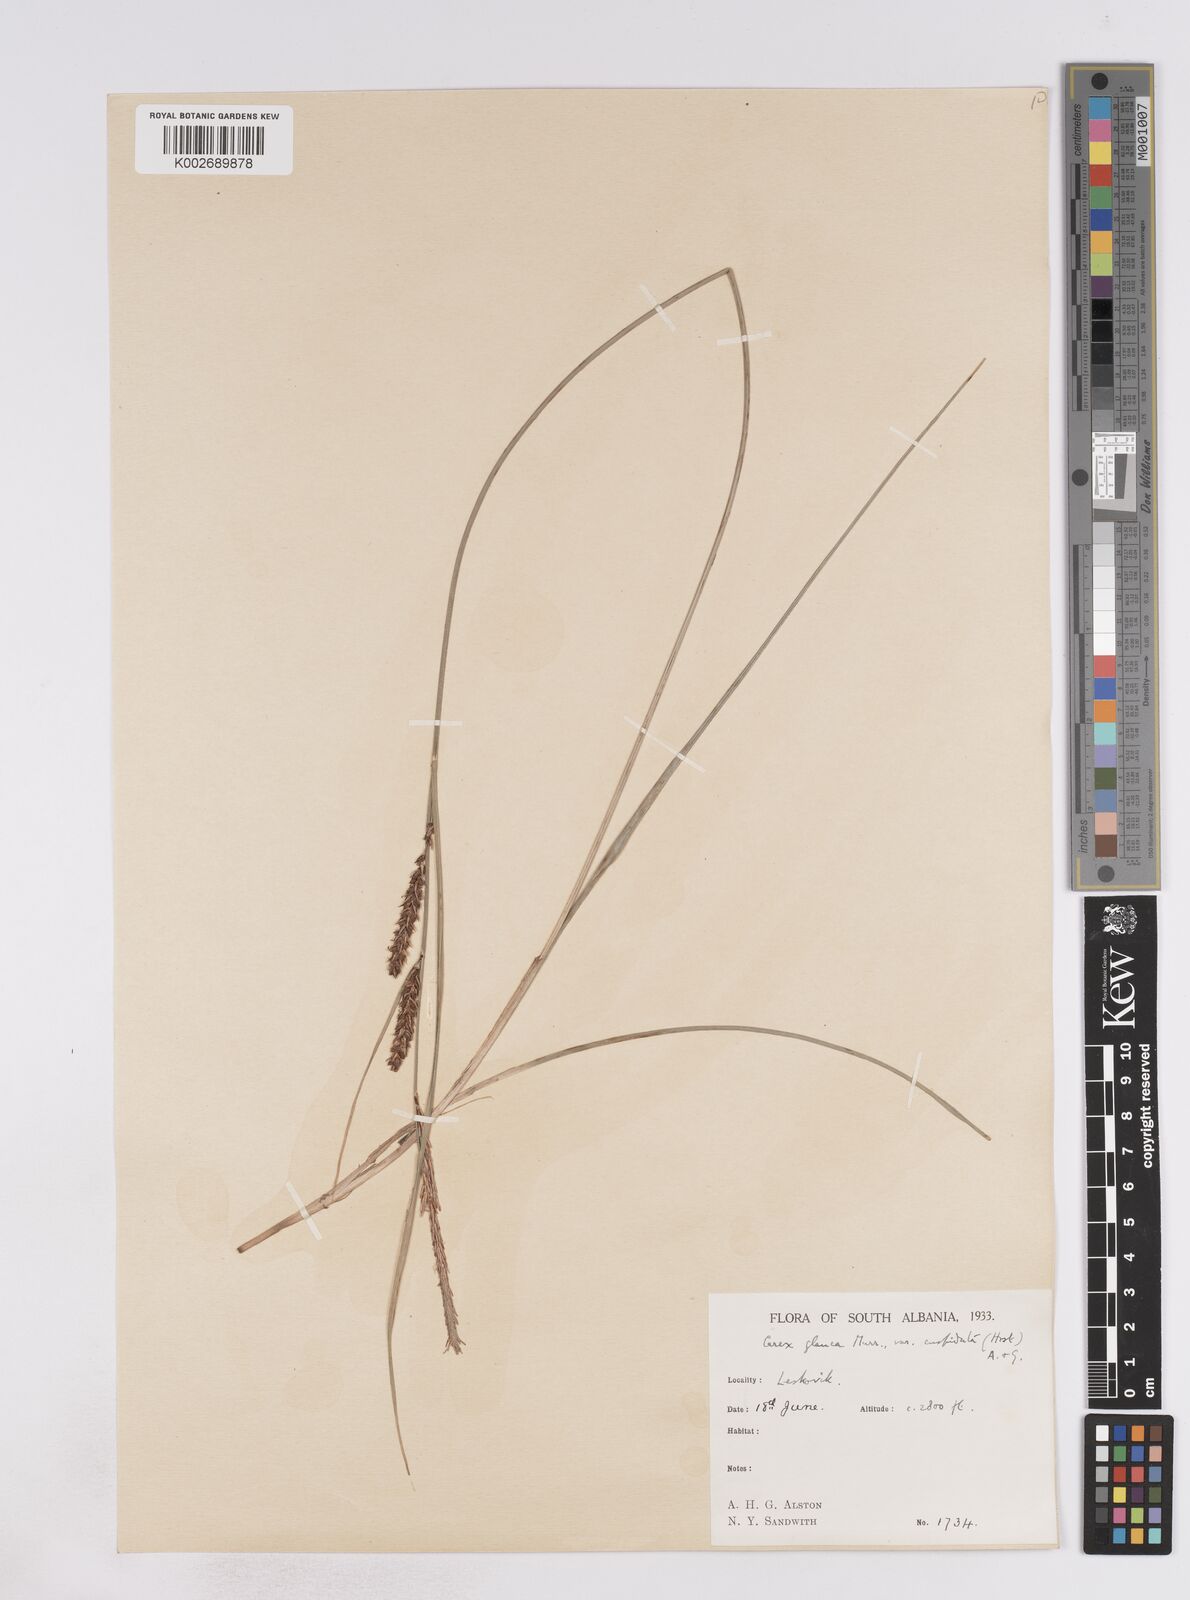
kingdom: Plantae
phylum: Tracheophyta
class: Liliopsida
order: Poales
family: Cyperaceae
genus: Carex
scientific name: Carex flacca
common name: Glaucous sedge
